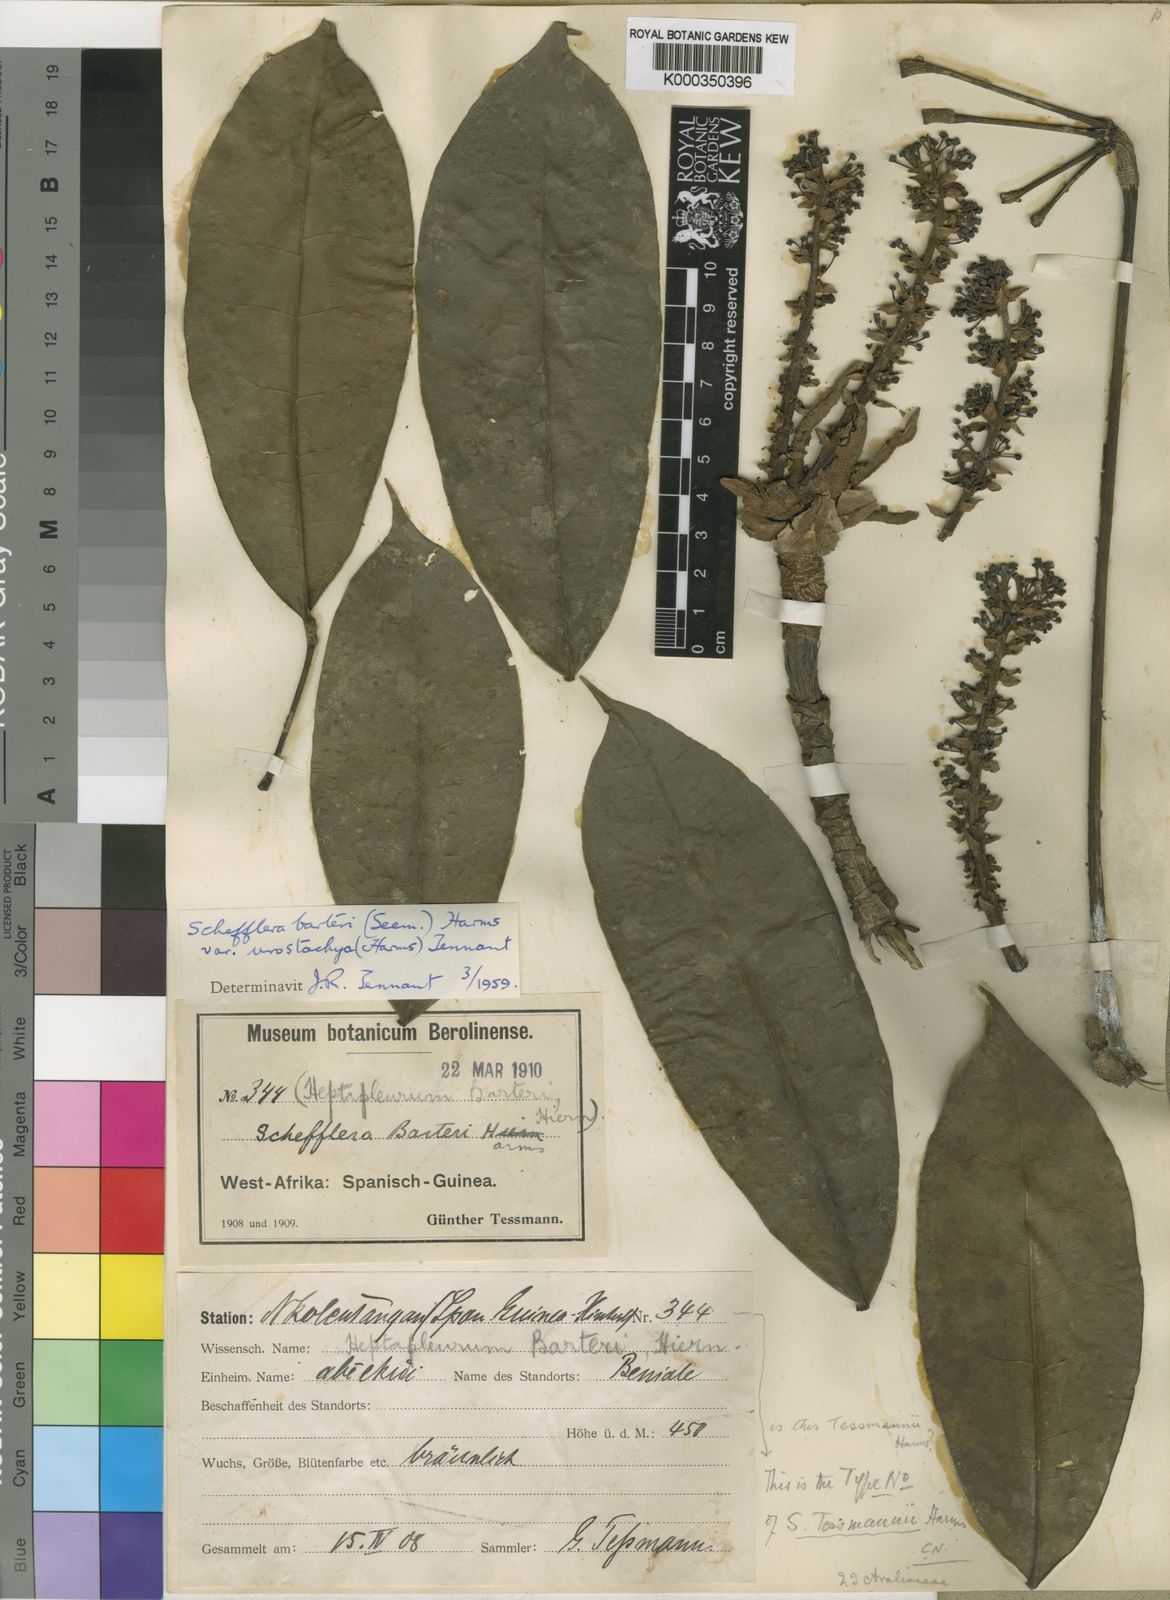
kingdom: Plantae
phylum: Tracheophyta
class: Magnoliopsida
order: Apiales
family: Araliaceae
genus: Astropanax
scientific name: Astropanax tessmannii
